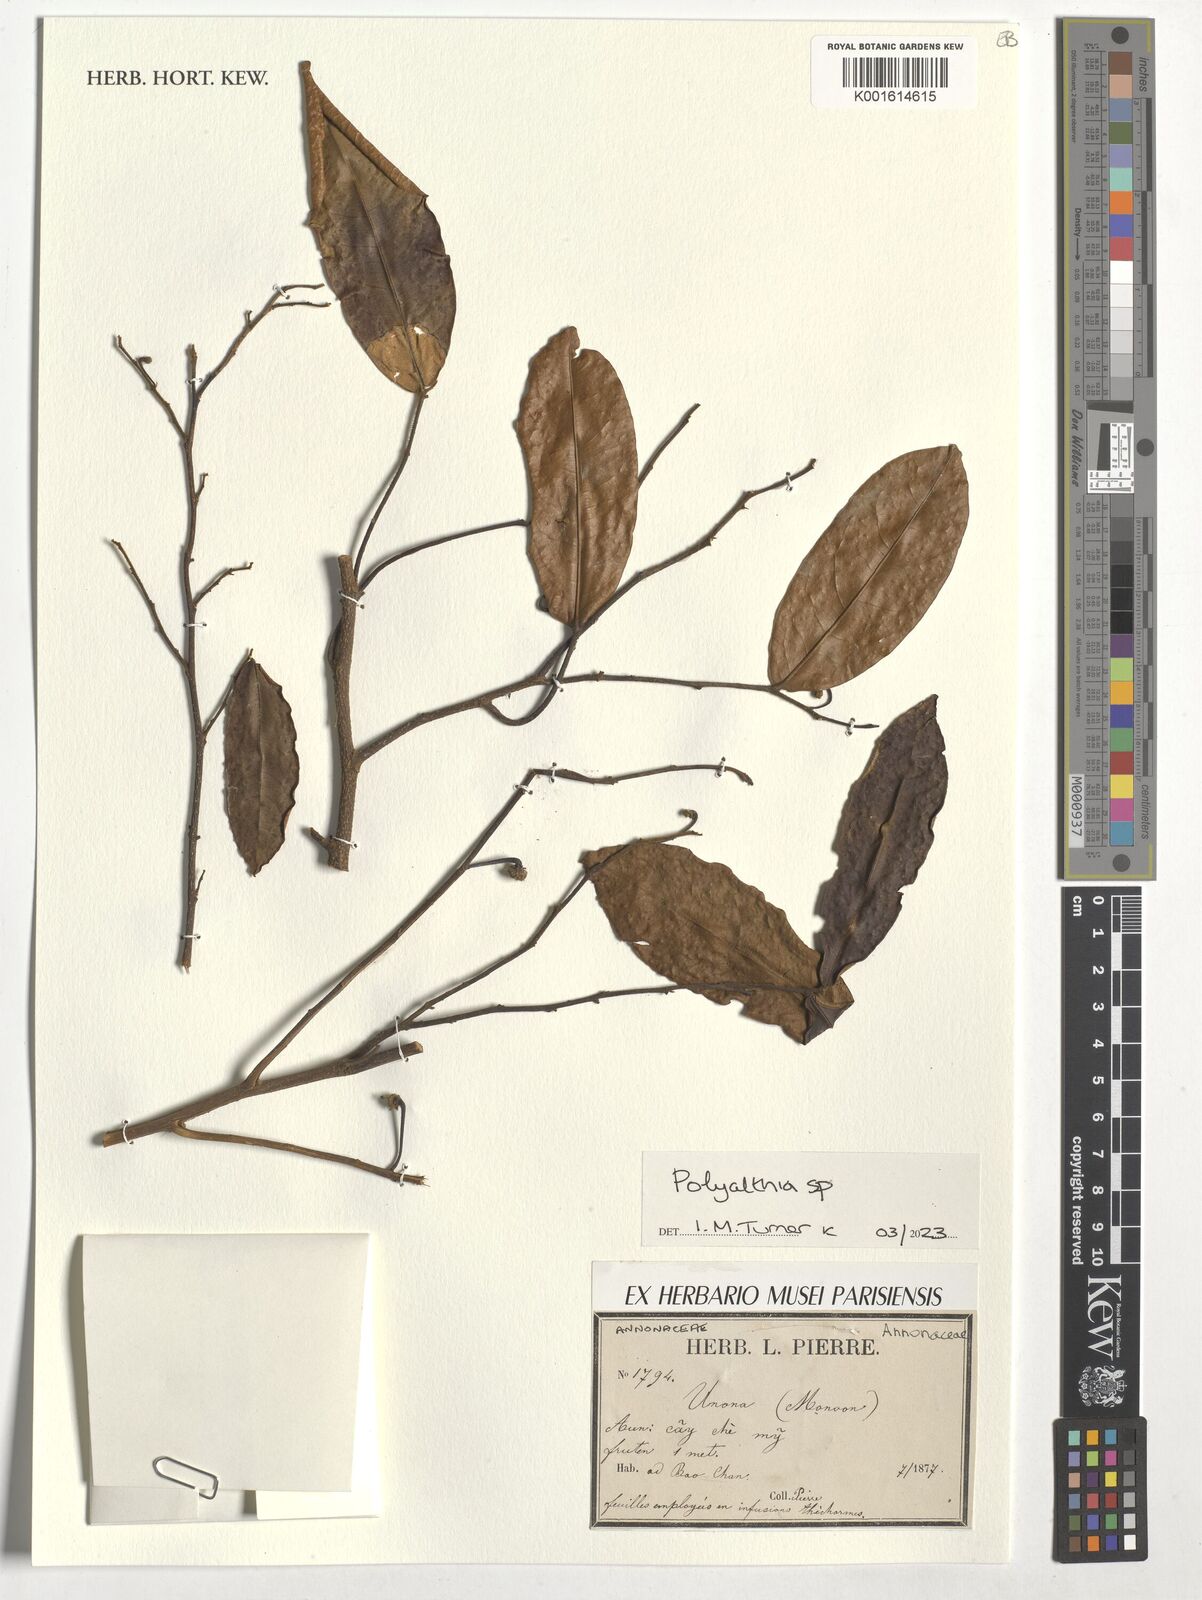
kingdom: Plantae
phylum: Tracheophyta
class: Magnoliopsida
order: Magnoliales
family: Annonaceae
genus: Polyalthia
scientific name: Polyalthia
